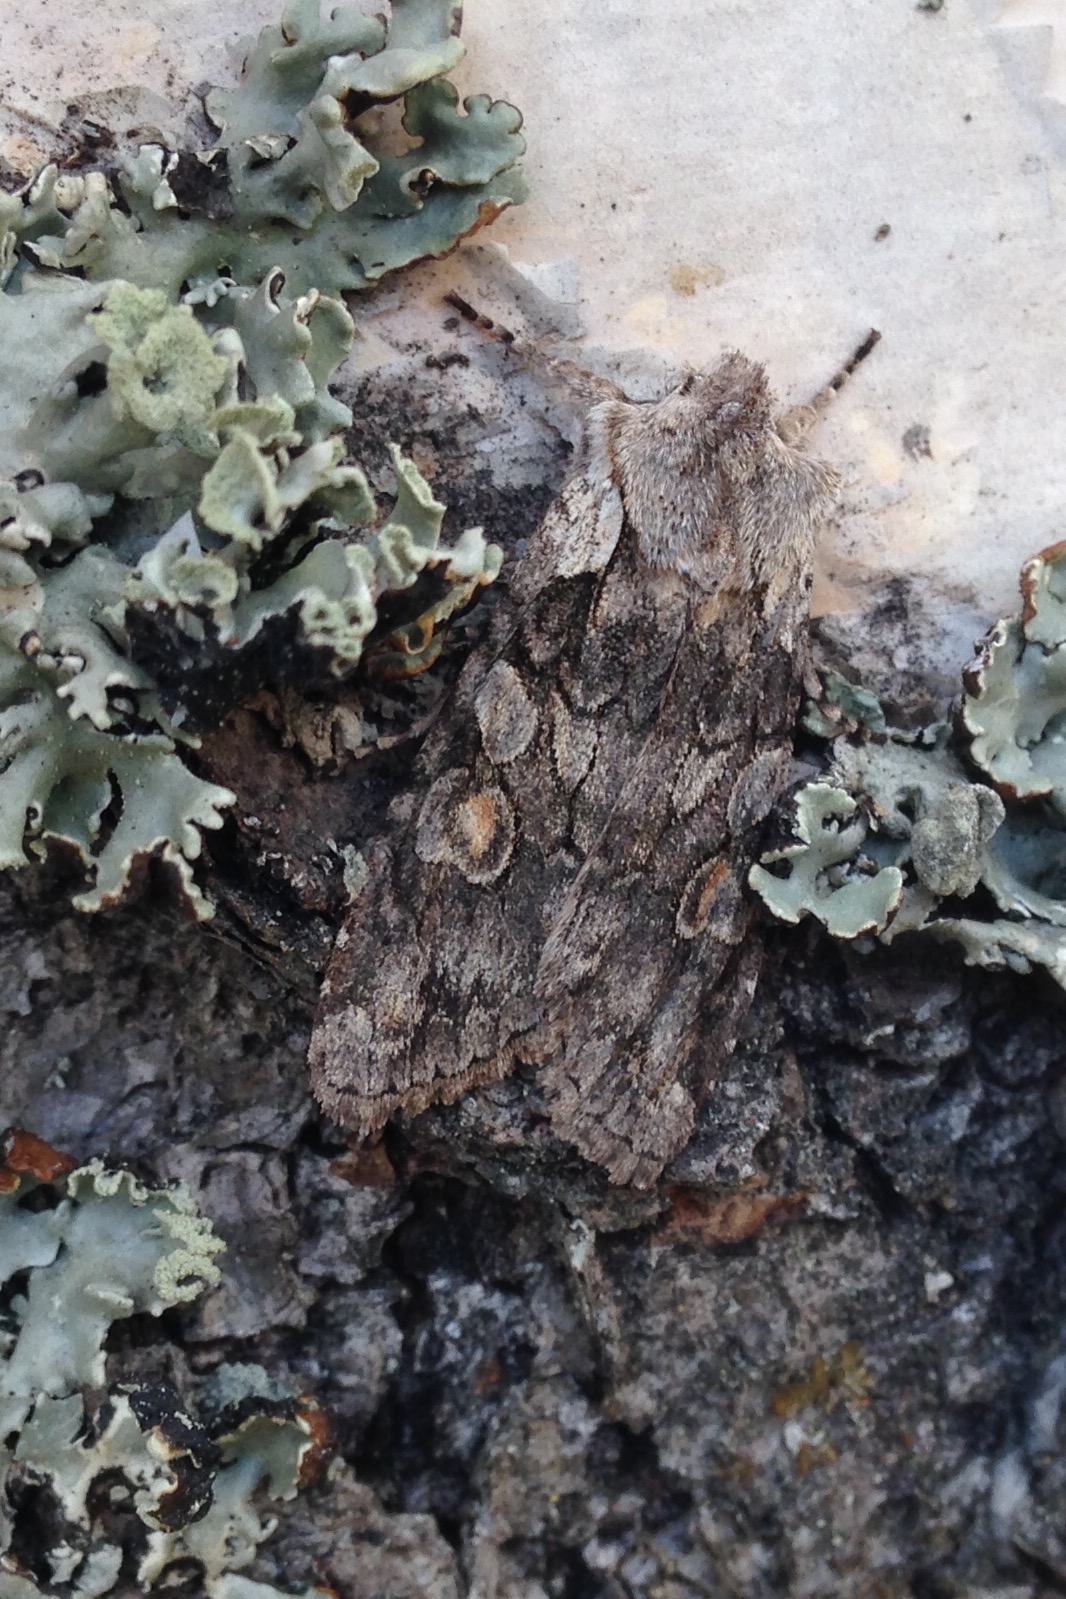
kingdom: Animalia
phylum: Arthropoda
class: Insecta
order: Lepidoptera
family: Noctuidae
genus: Lithophane
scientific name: Lithophane consocia
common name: Softly's shoulder-knot
